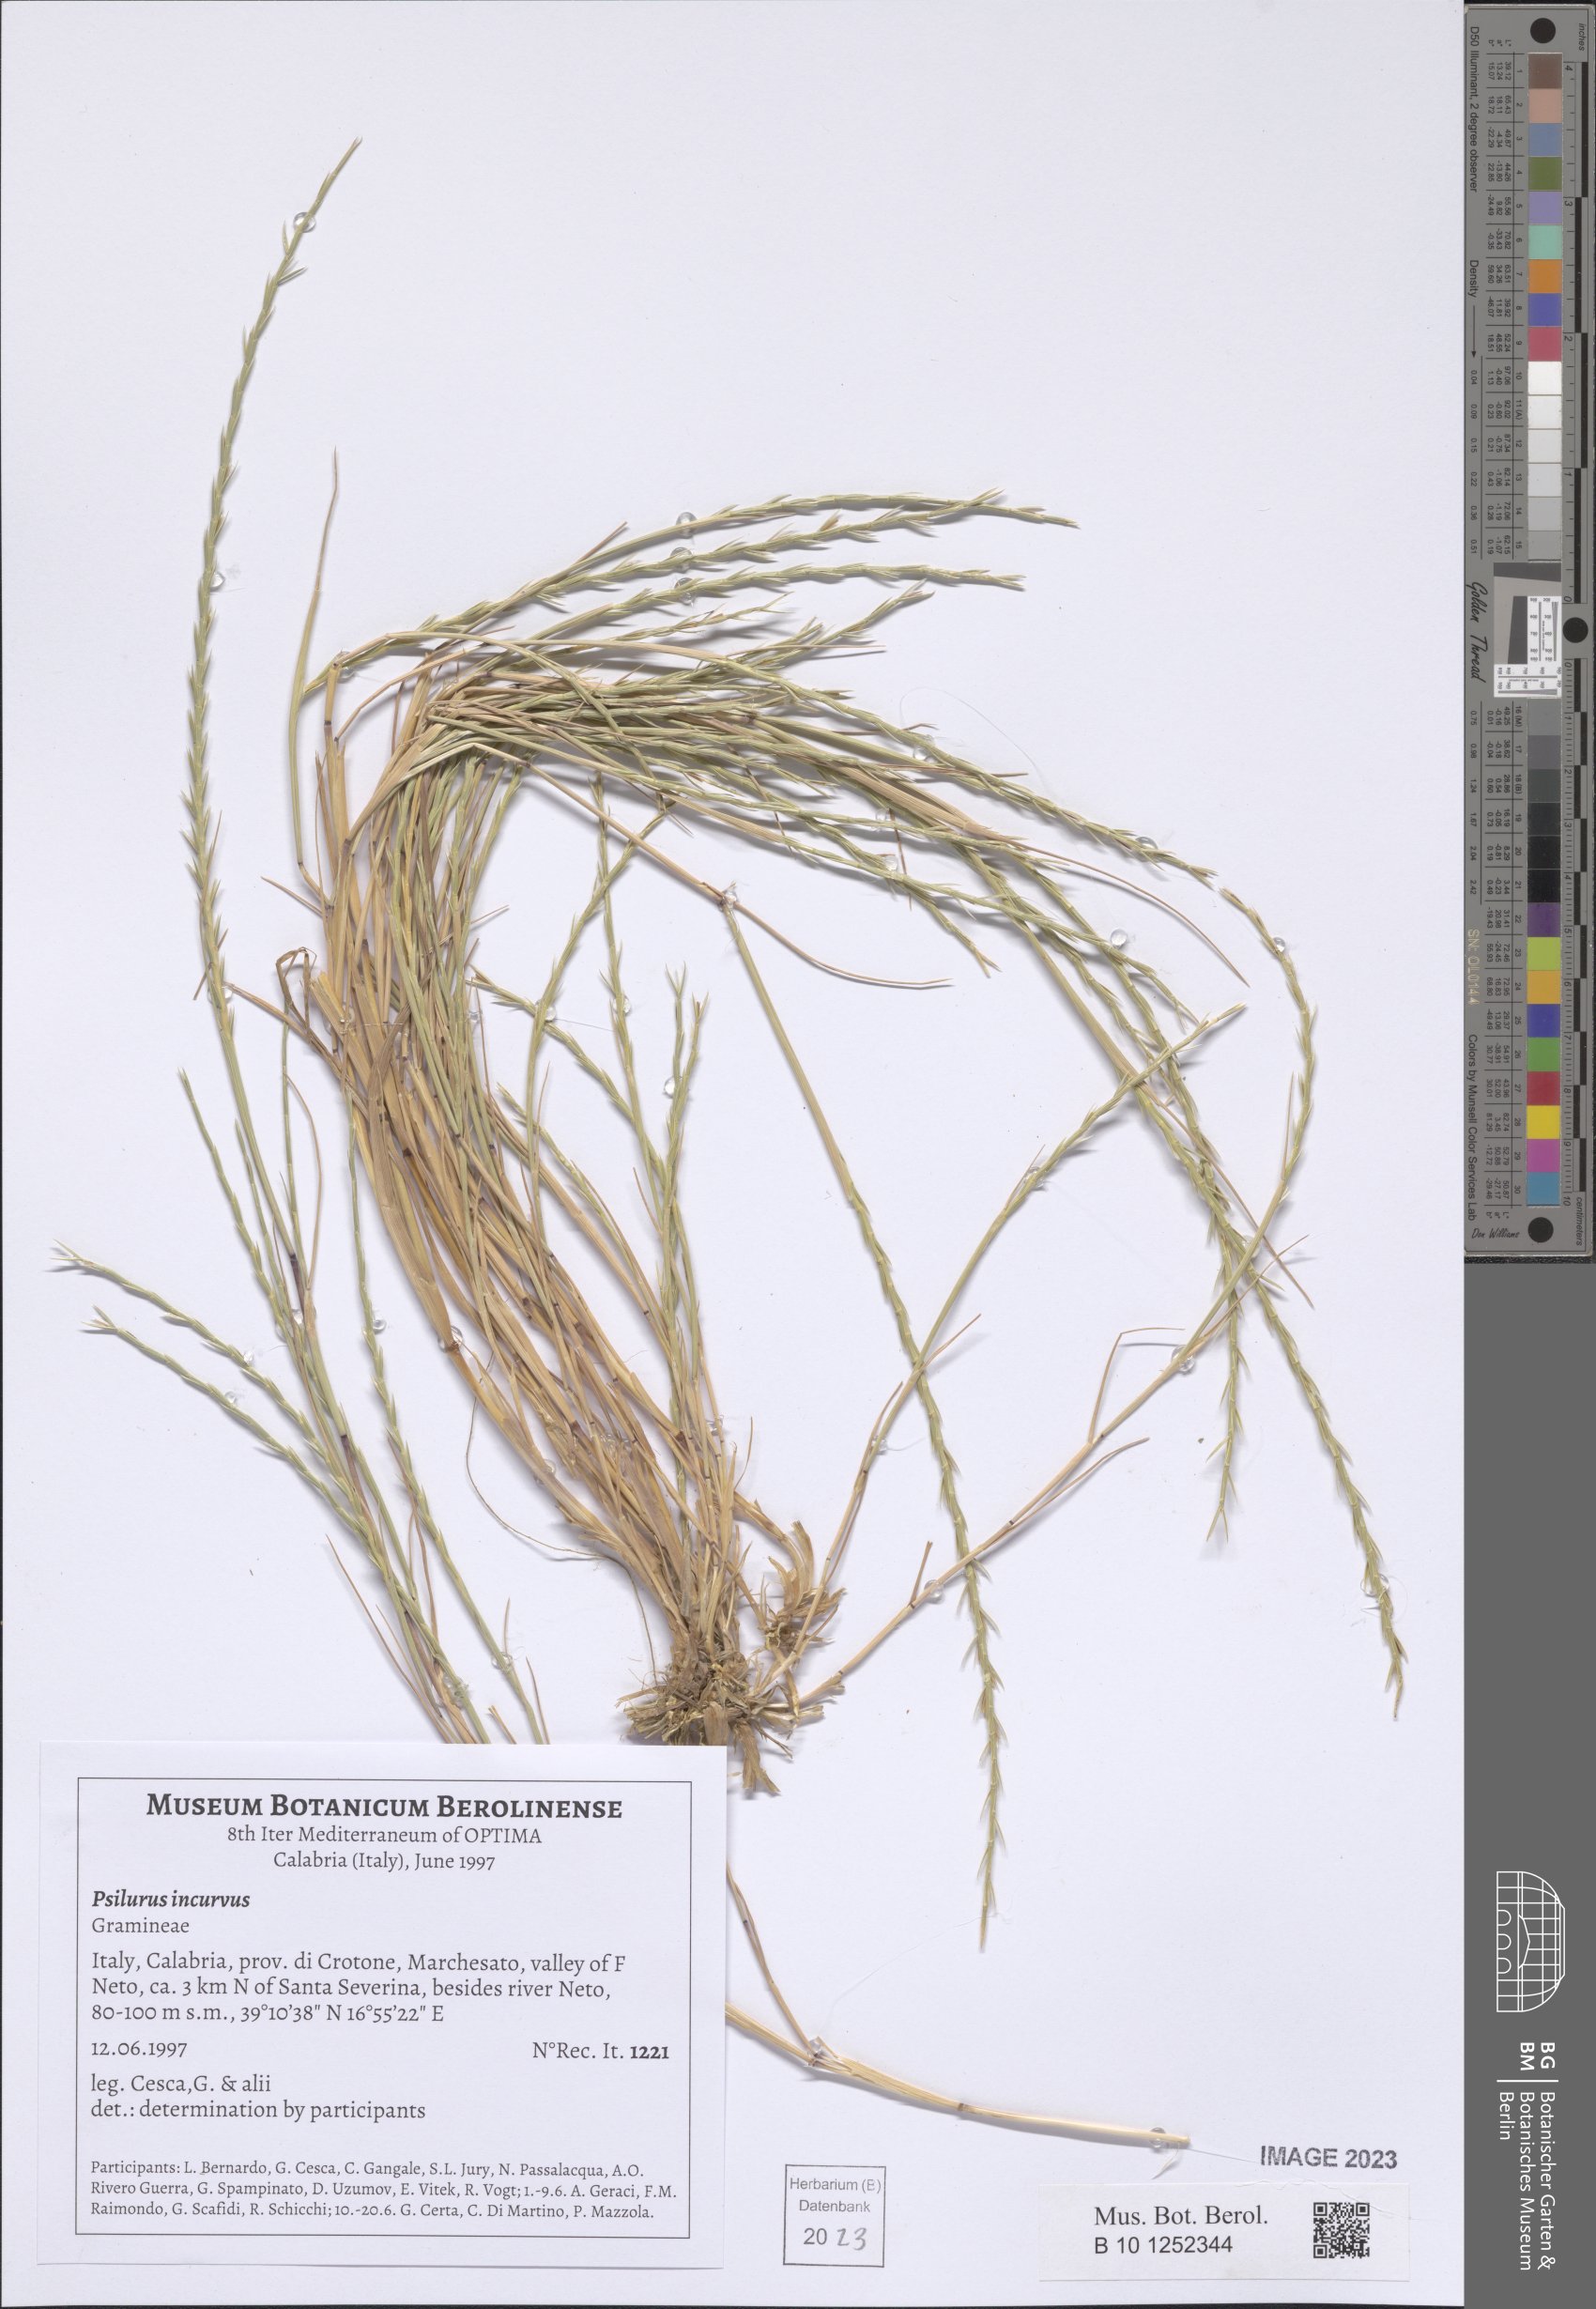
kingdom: Plantae
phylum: Tracheophyta
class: Liliopsida
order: Poales
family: Poaceae
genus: Festuca
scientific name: Festuca incurva
